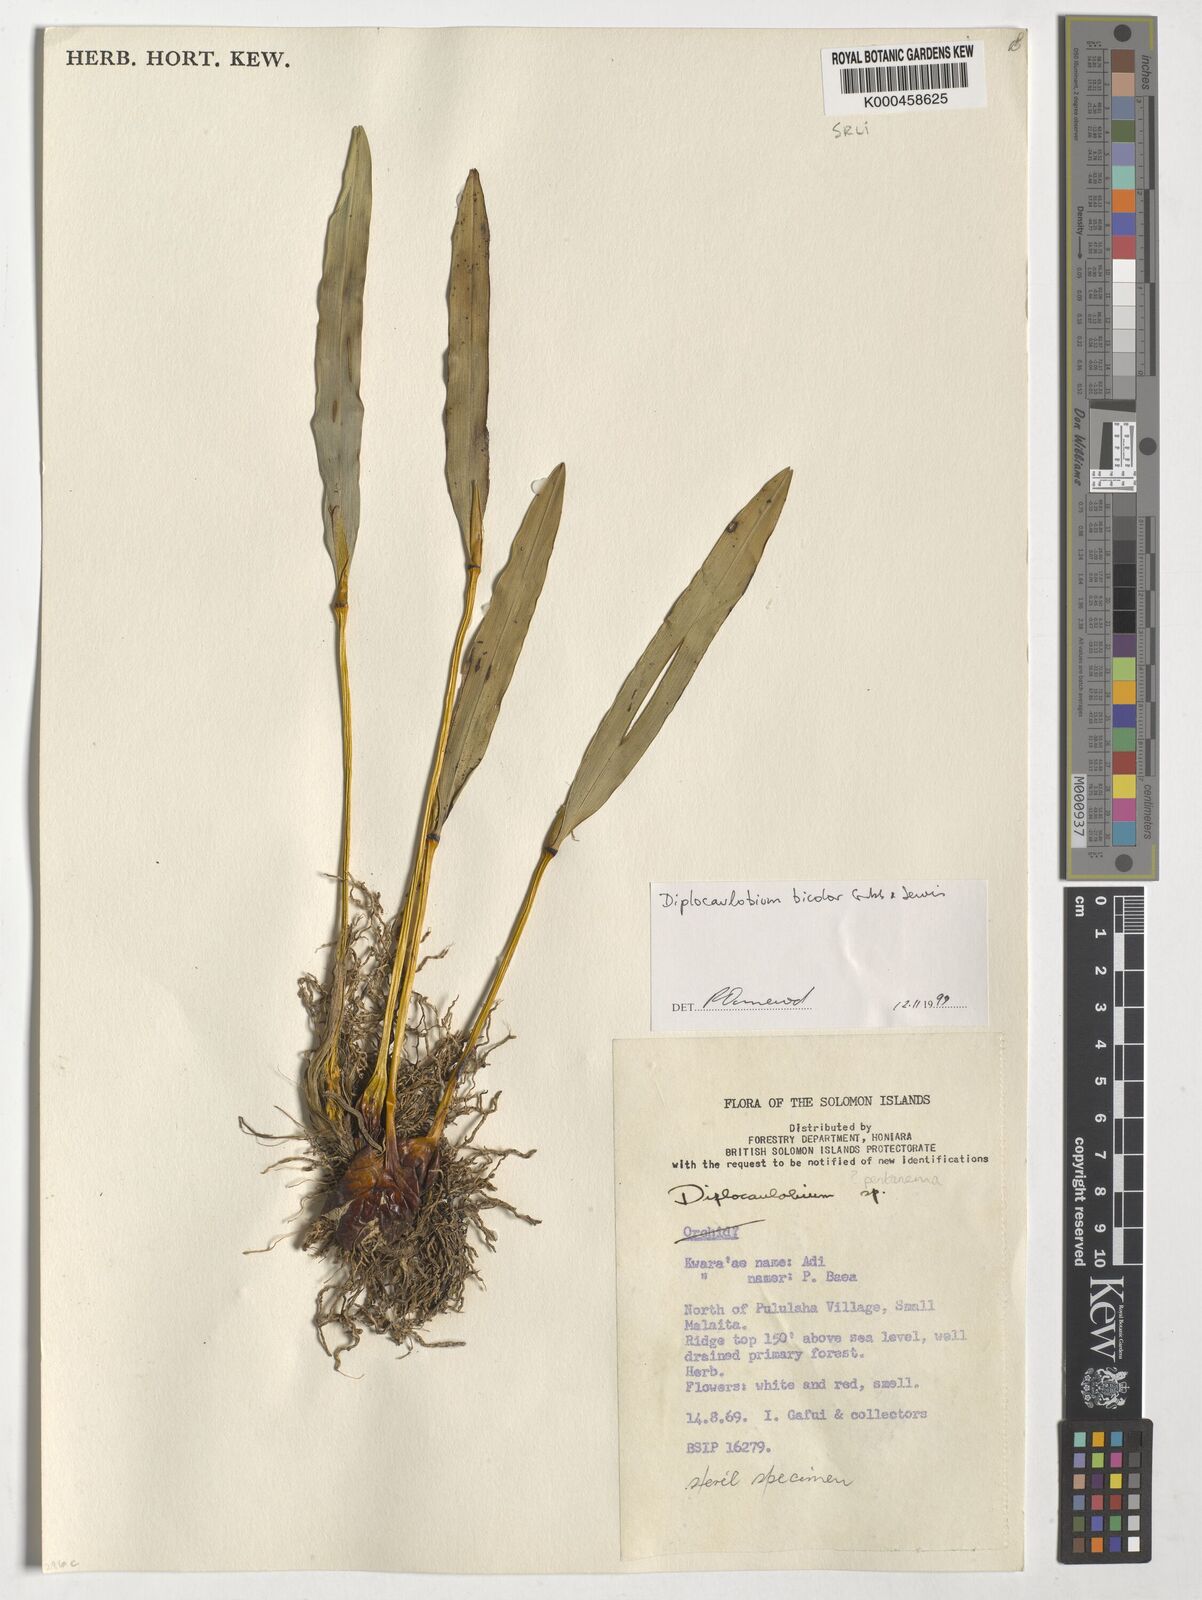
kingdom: Plantae
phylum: Tracheophyta
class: Liliopsida
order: Asparagales
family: Orchidaceae
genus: Dendrobium
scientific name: Dendrobium lewisiae
